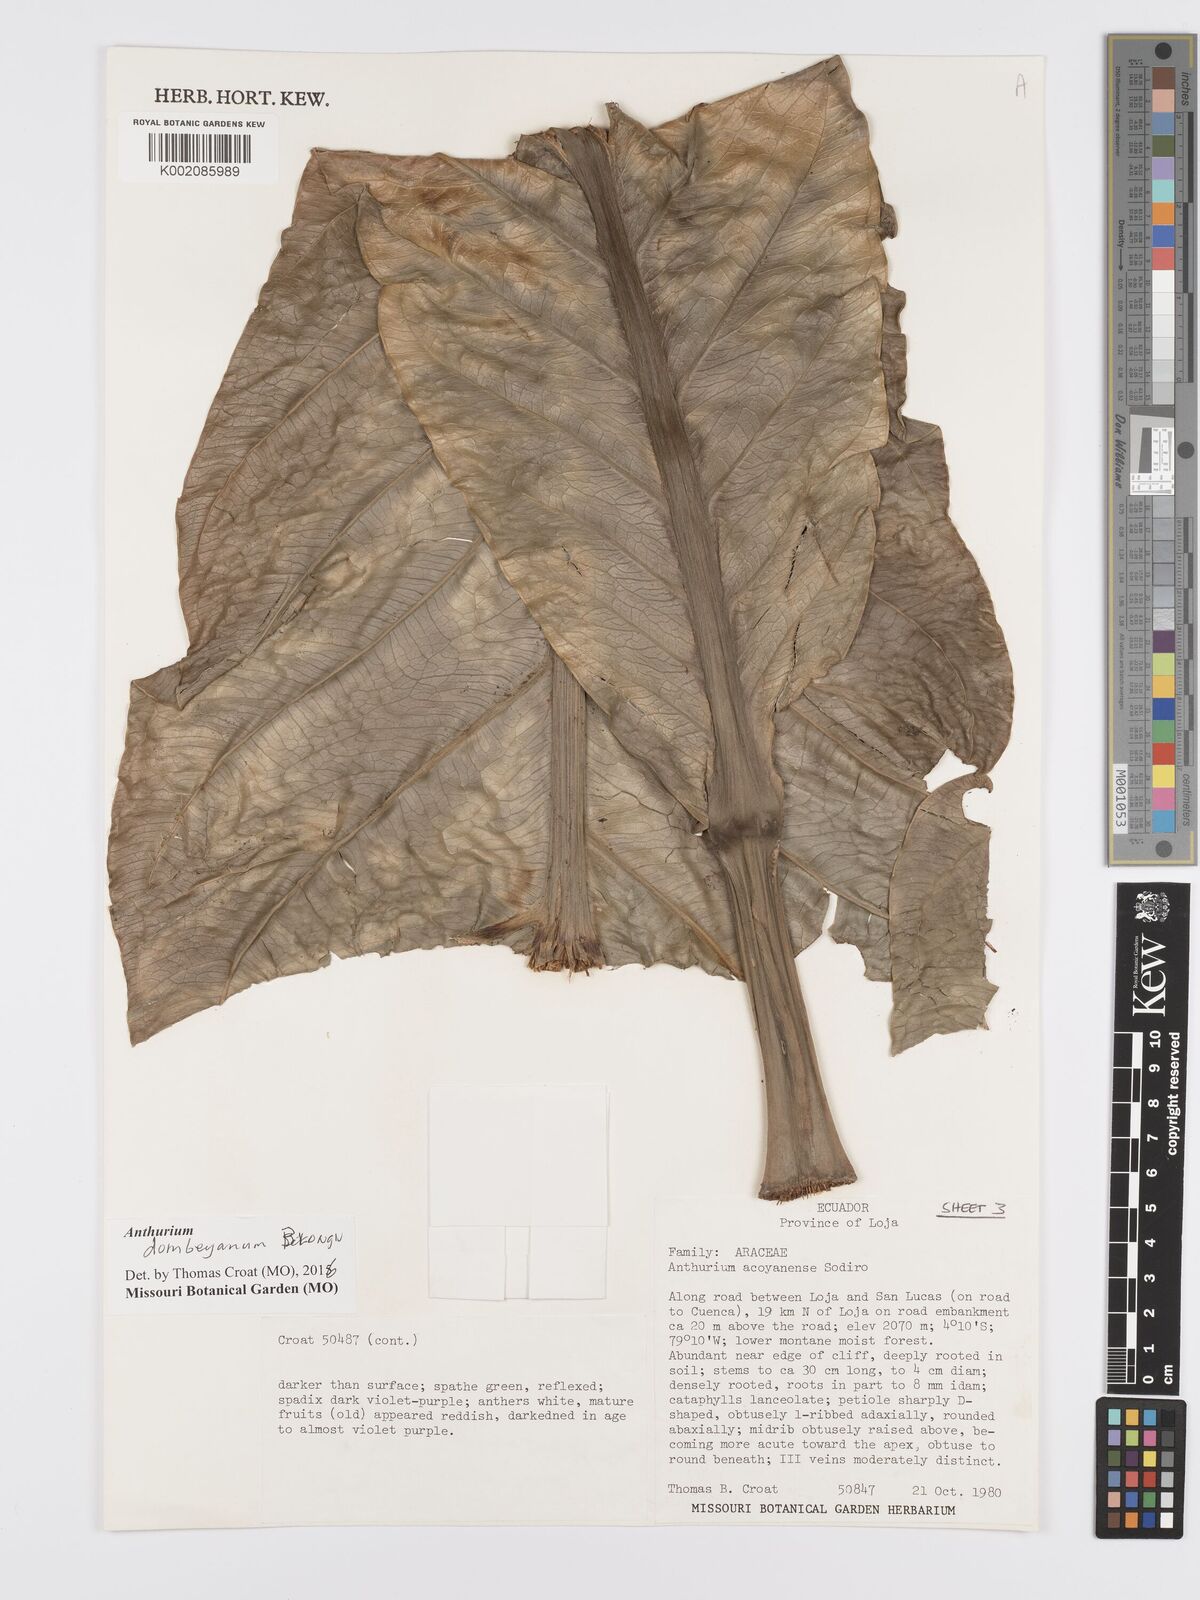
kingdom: Plantae
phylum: Tracheophyta
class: Liliopsida
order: Alismatales
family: Araceae
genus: Anthurium
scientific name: Anthurium dombeyanum
